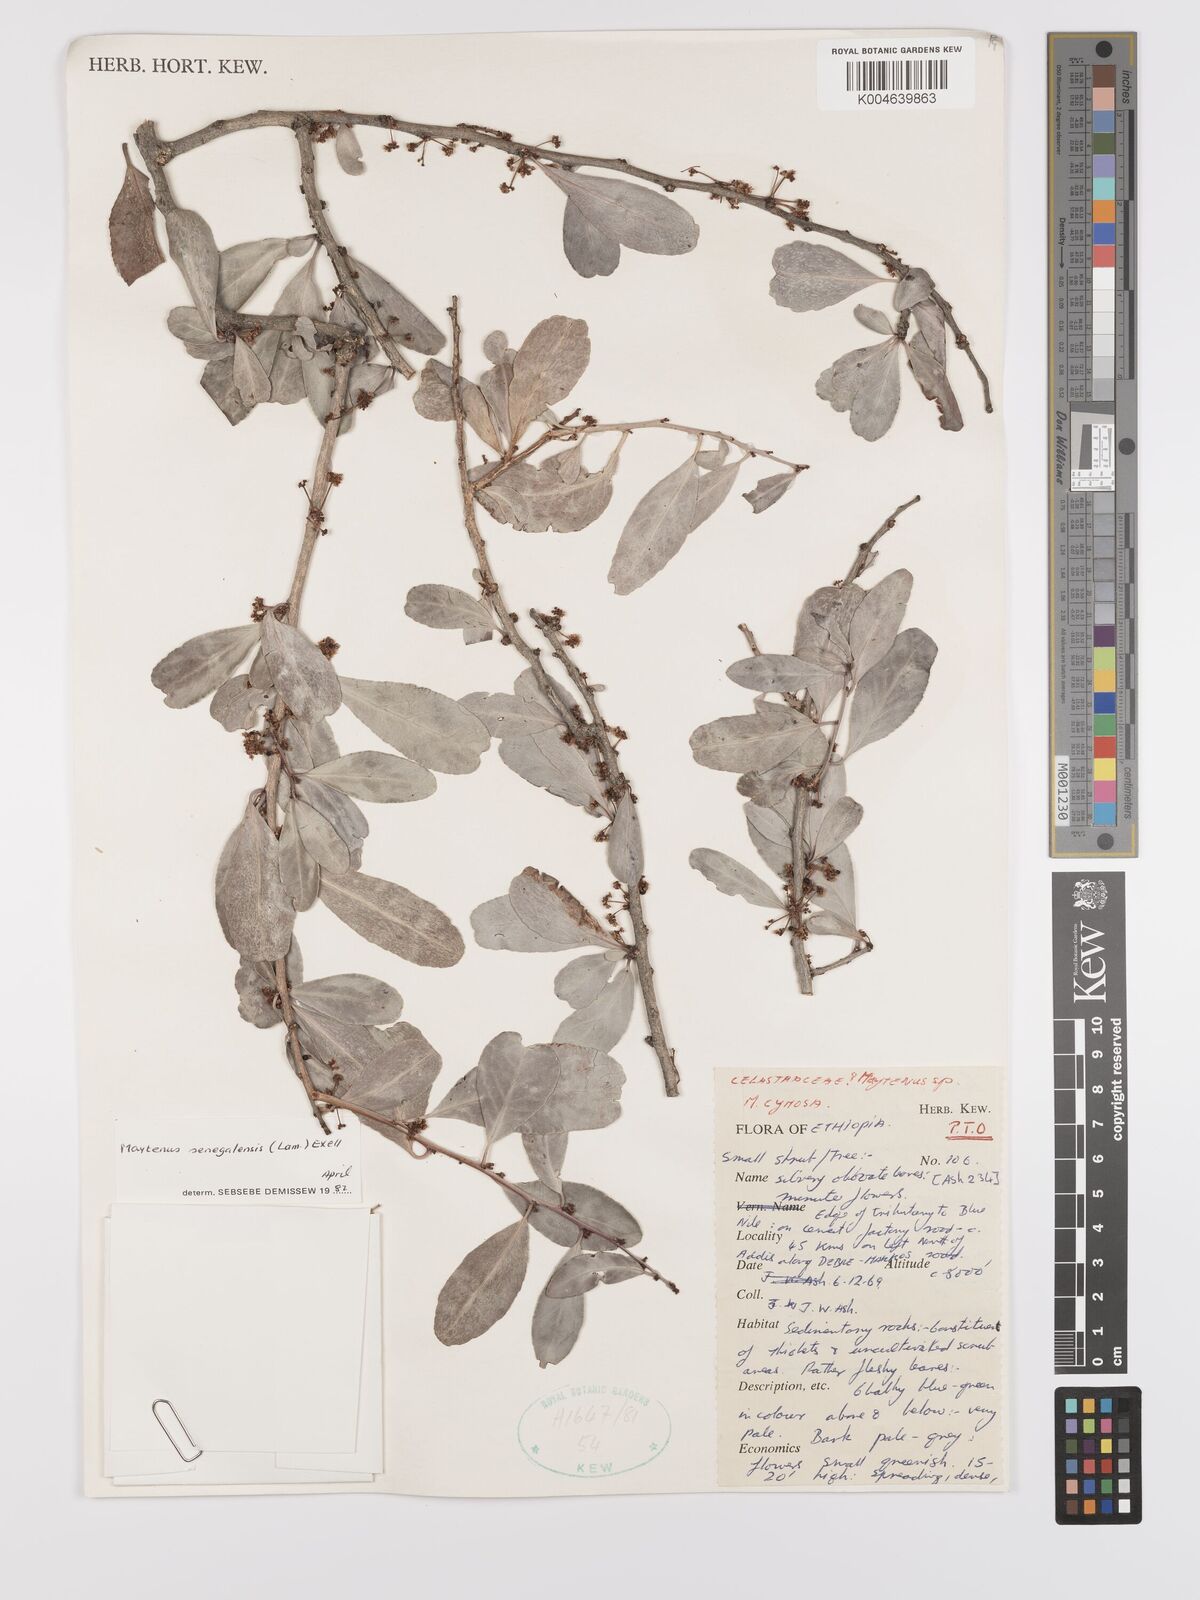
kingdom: Plantae
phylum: Tracheophyta
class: Magnoliopsida
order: Celastrales
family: Celastraceae
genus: Gymnosporia
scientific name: Gymnosporia senegalensis
